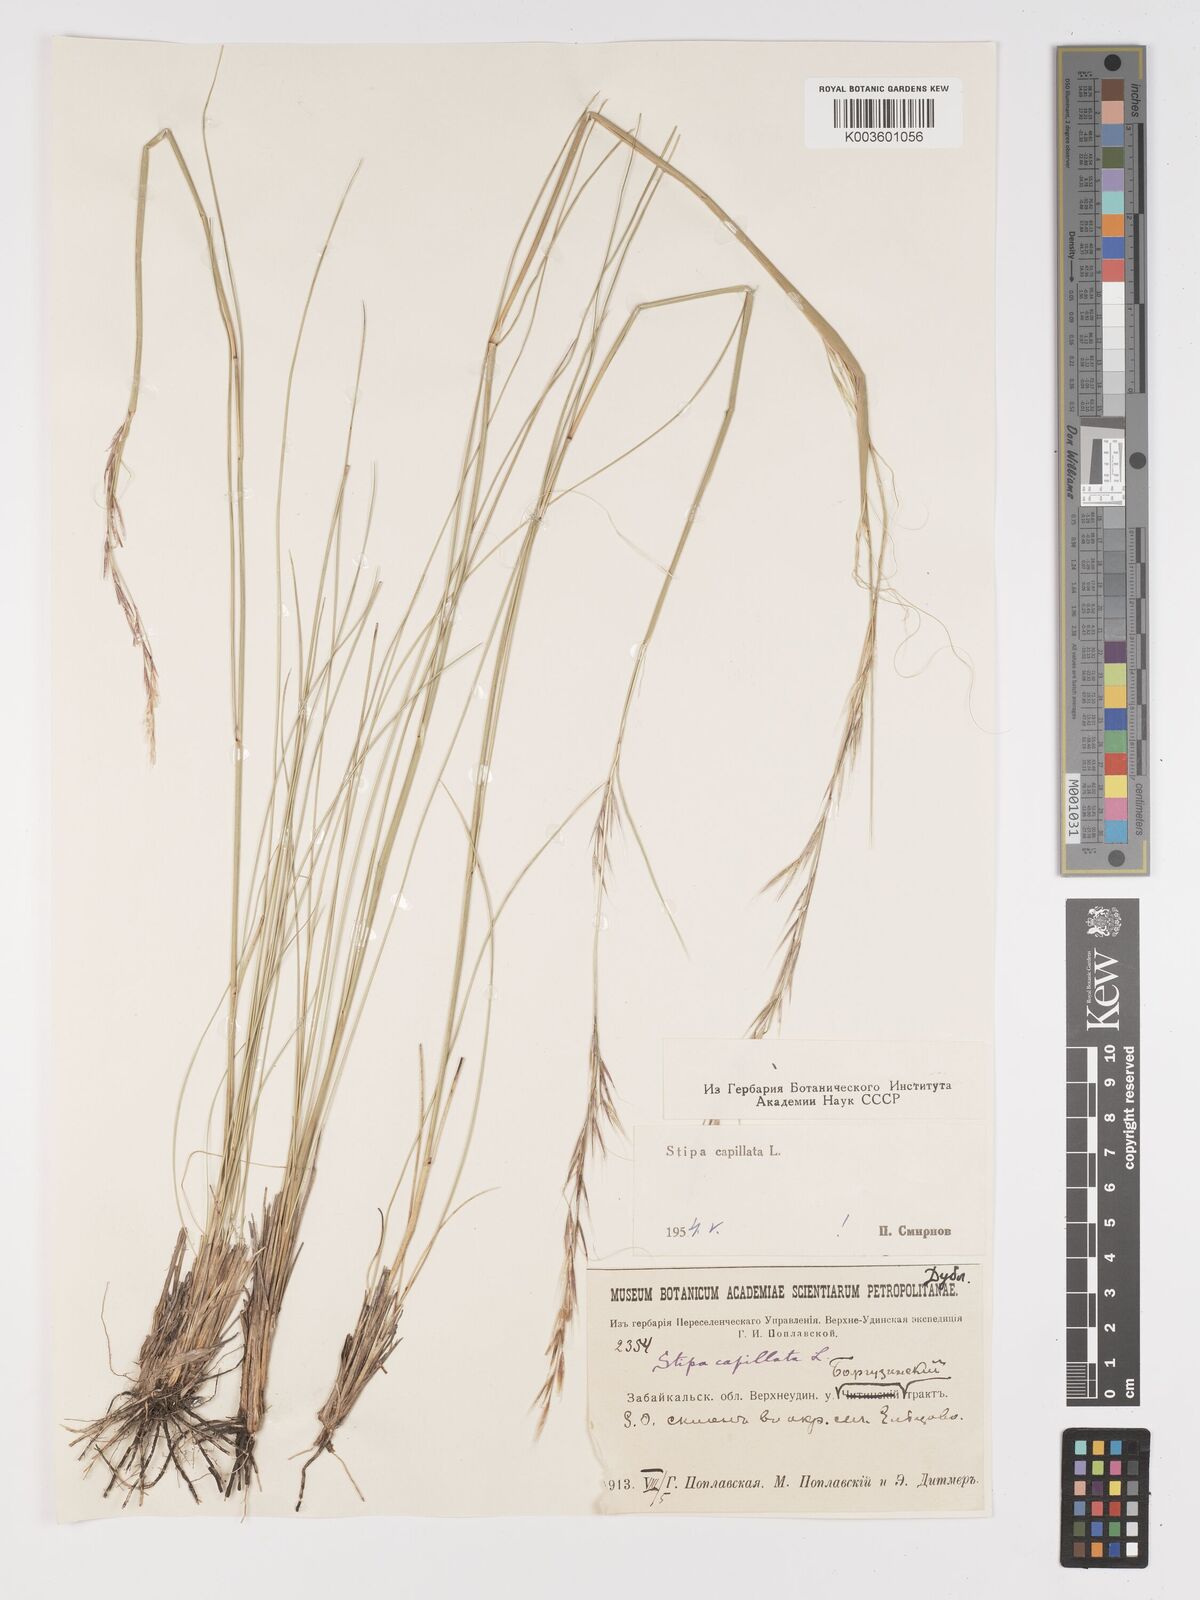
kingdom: Plantae
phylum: Tracheophyta
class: Liliopsida
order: Poales
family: Poaceae
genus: Stipa
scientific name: Stipa capillata
